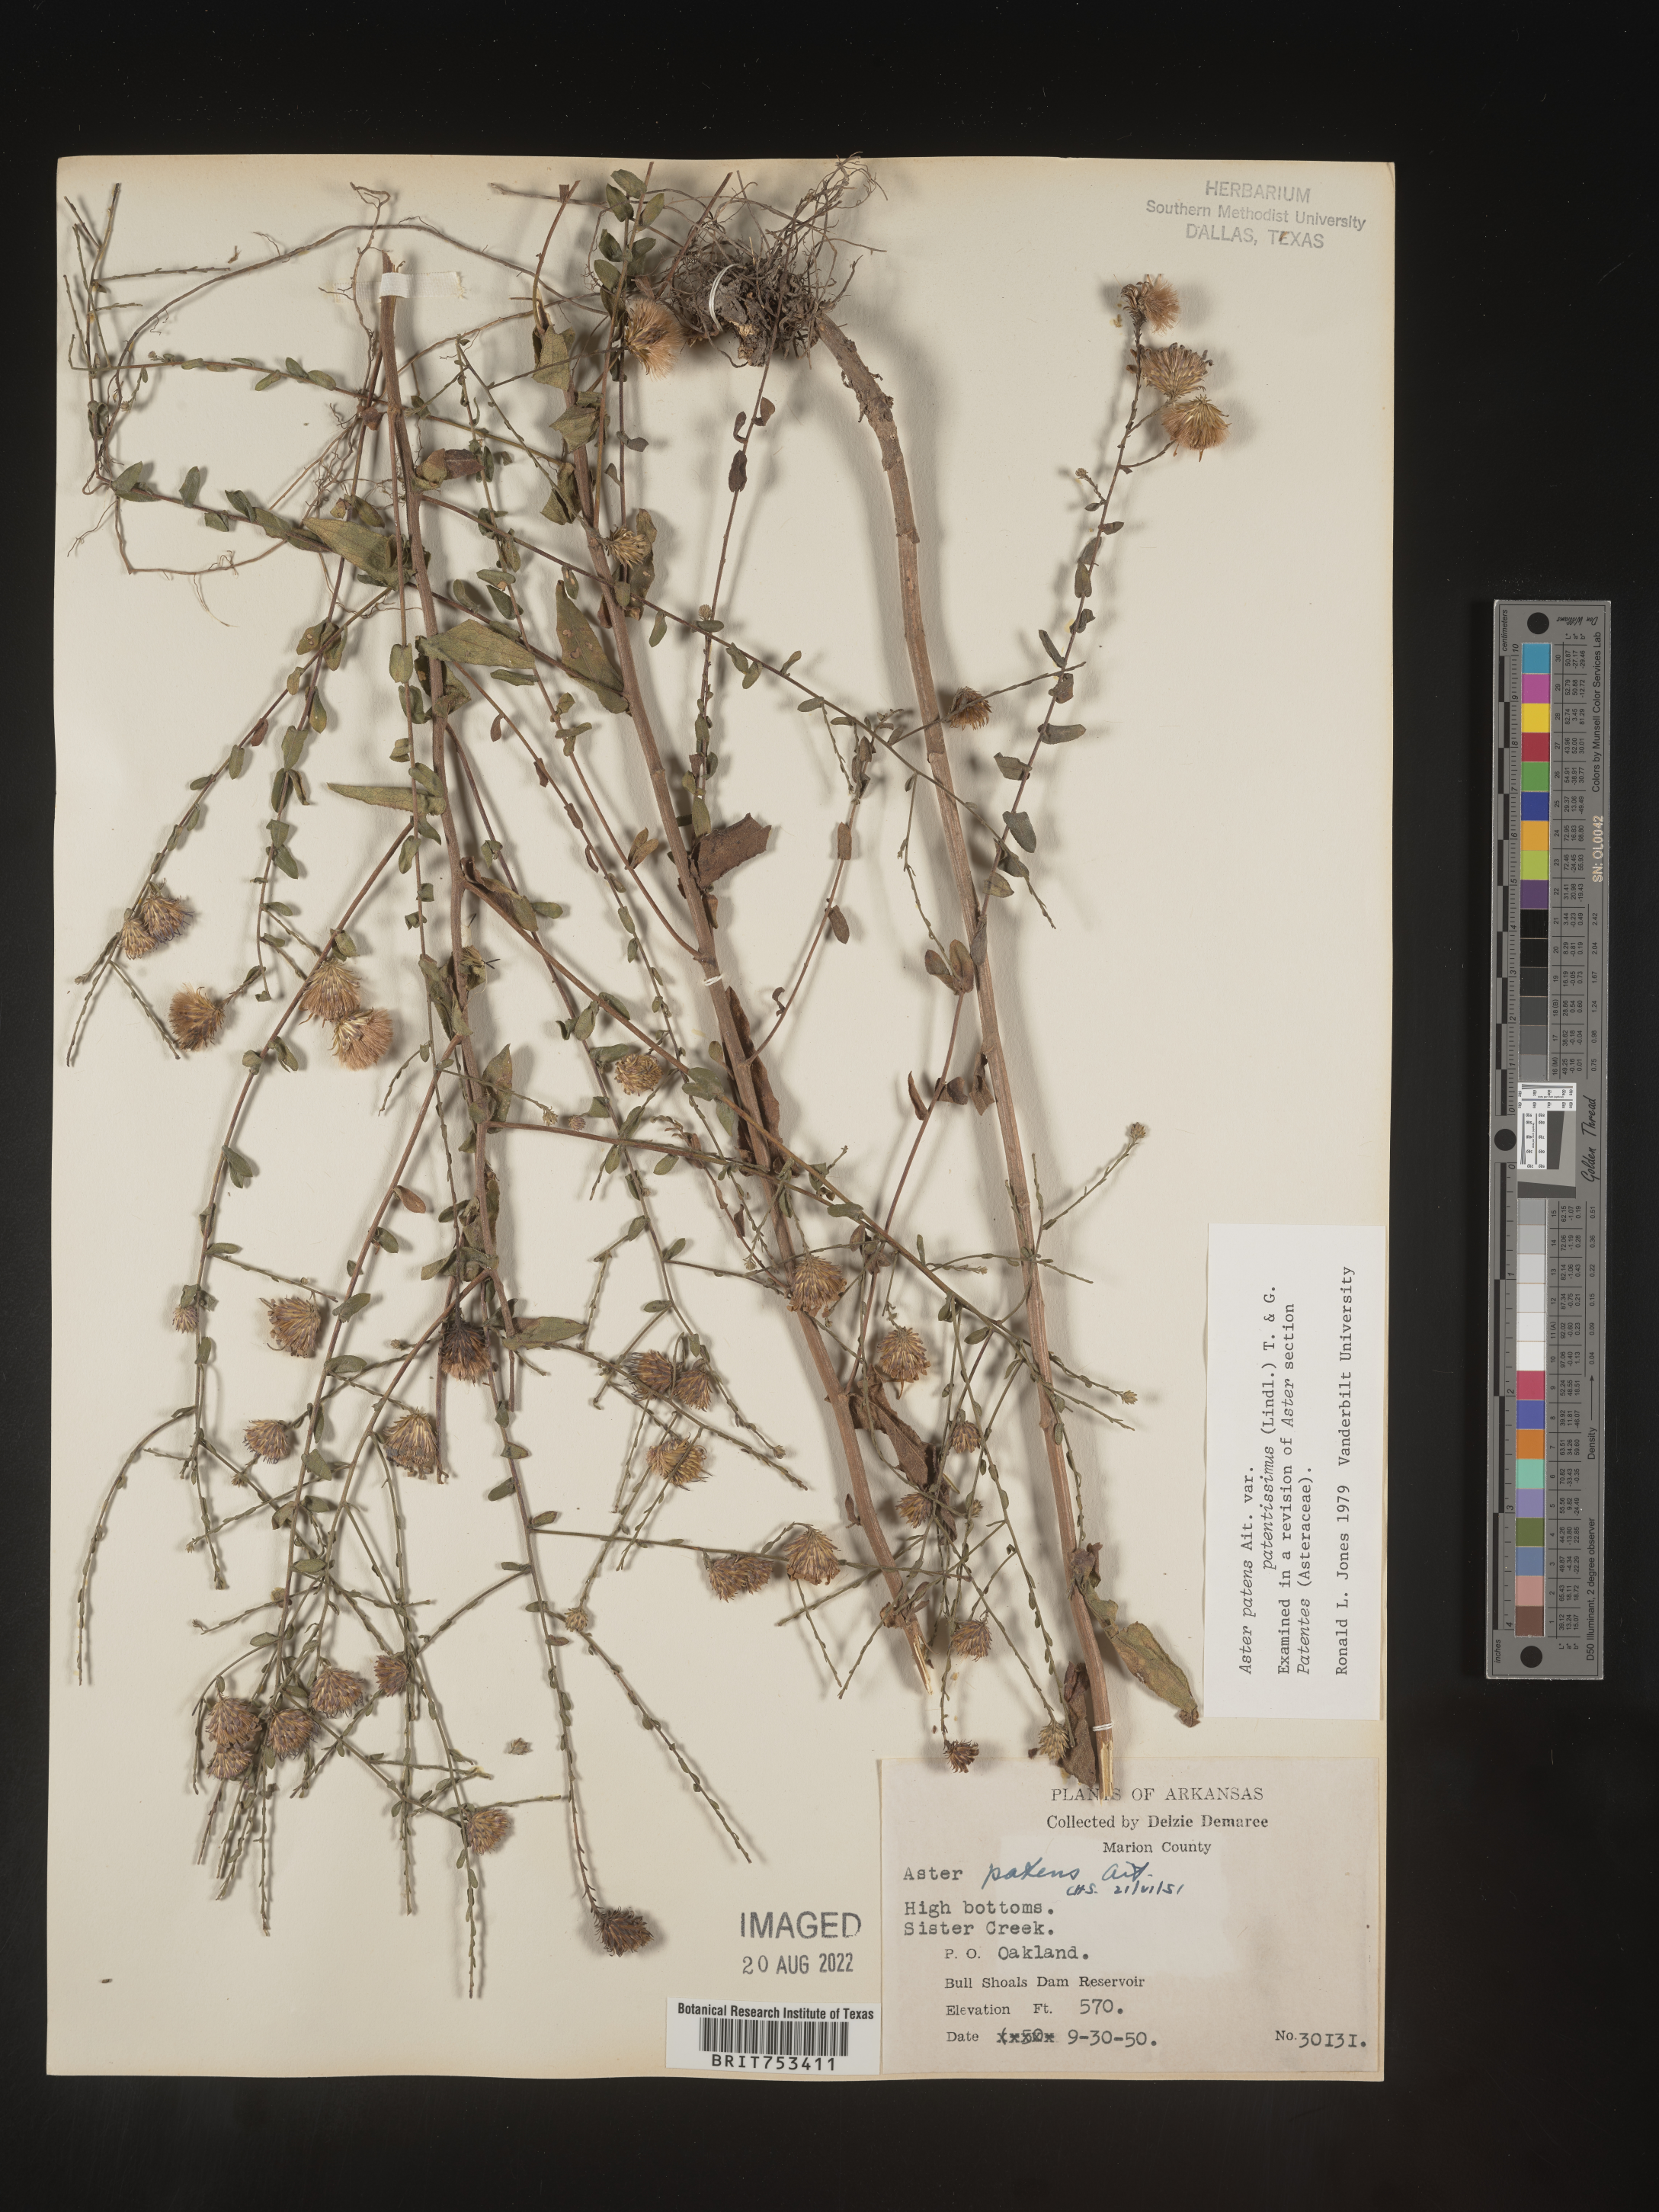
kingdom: Plantae
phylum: Tracheophyta
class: Magnoliopsida
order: Asterales
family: Asteraceae
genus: Symphyotrichum
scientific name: Symphyotrichum patens
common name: Late purple aster
